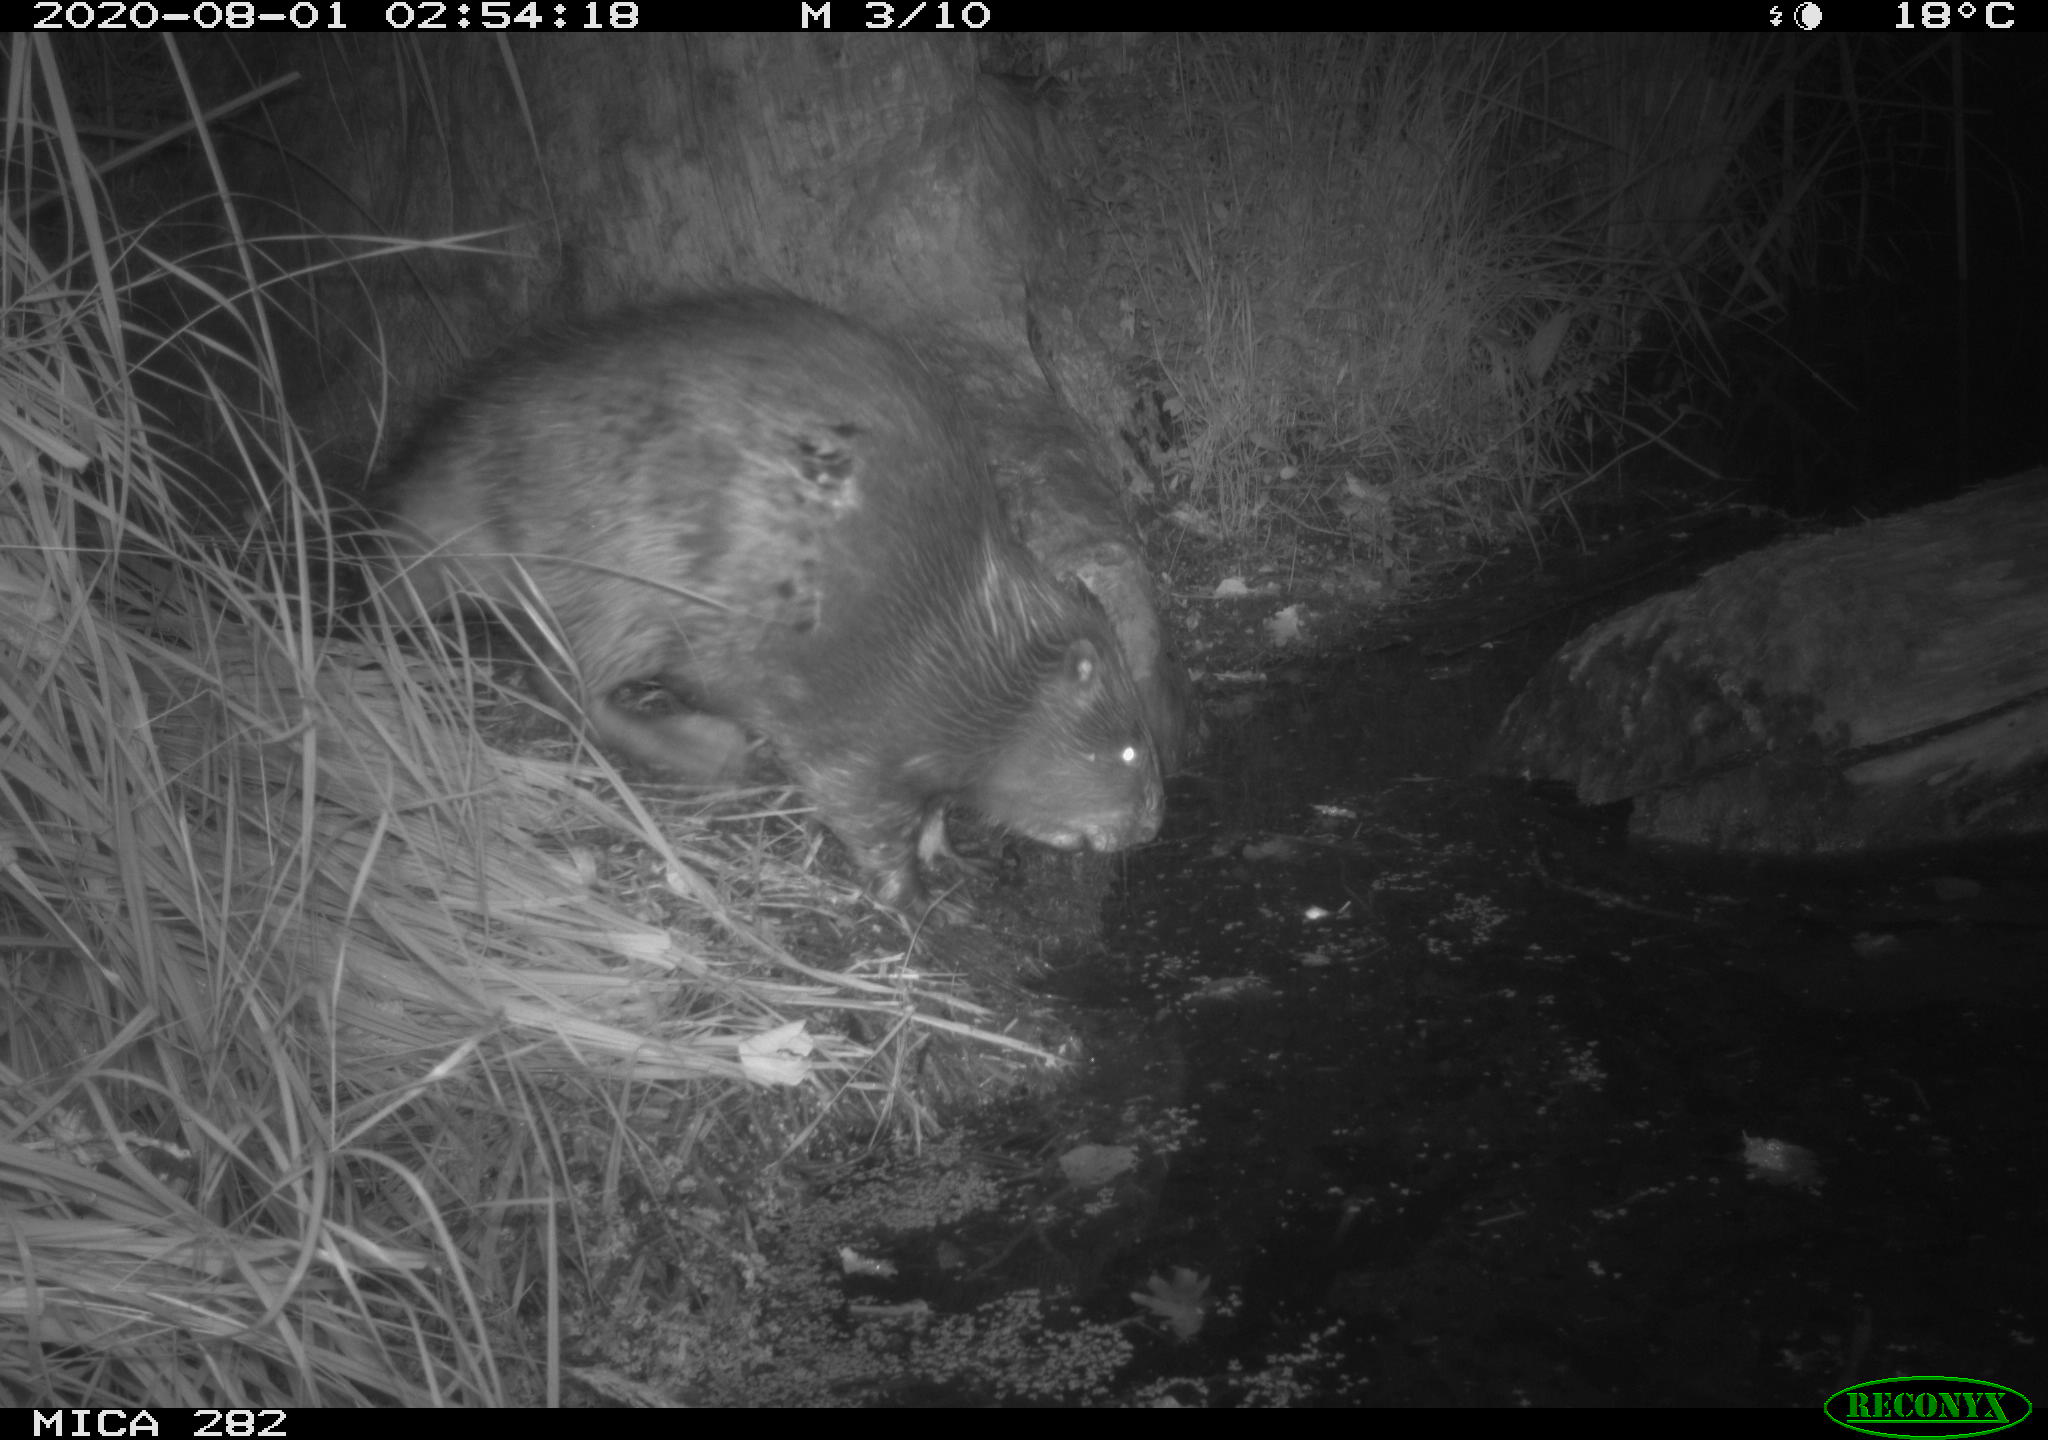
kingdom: Animalia
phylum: Chordata
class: Mammalia
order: Rodentia
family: Castoridae
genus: Castor
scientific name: Castor fiber
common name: Eurasian beaver
